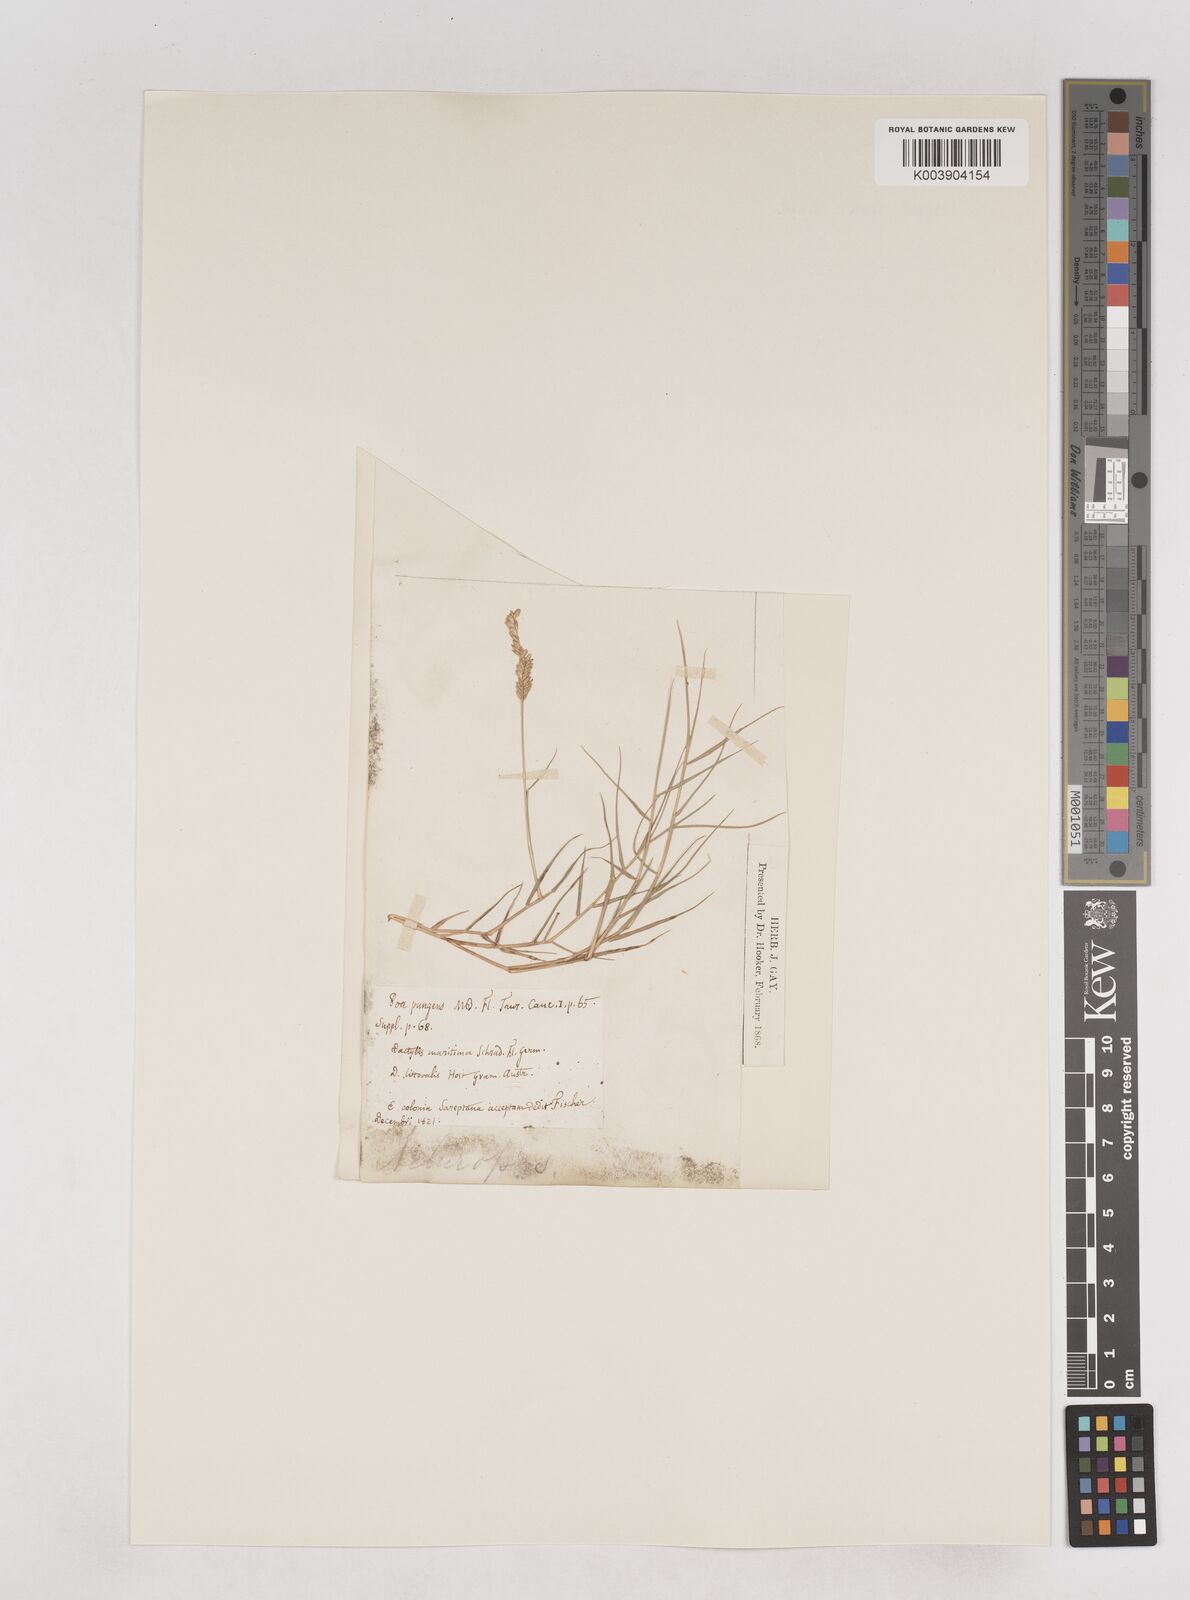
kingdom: Plantae
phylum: Tracheophyta
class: Liliopsida
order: Poales
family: Poaceae
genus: Aeluropus
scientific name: Aeluropus littoralis
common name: Indian walnut
